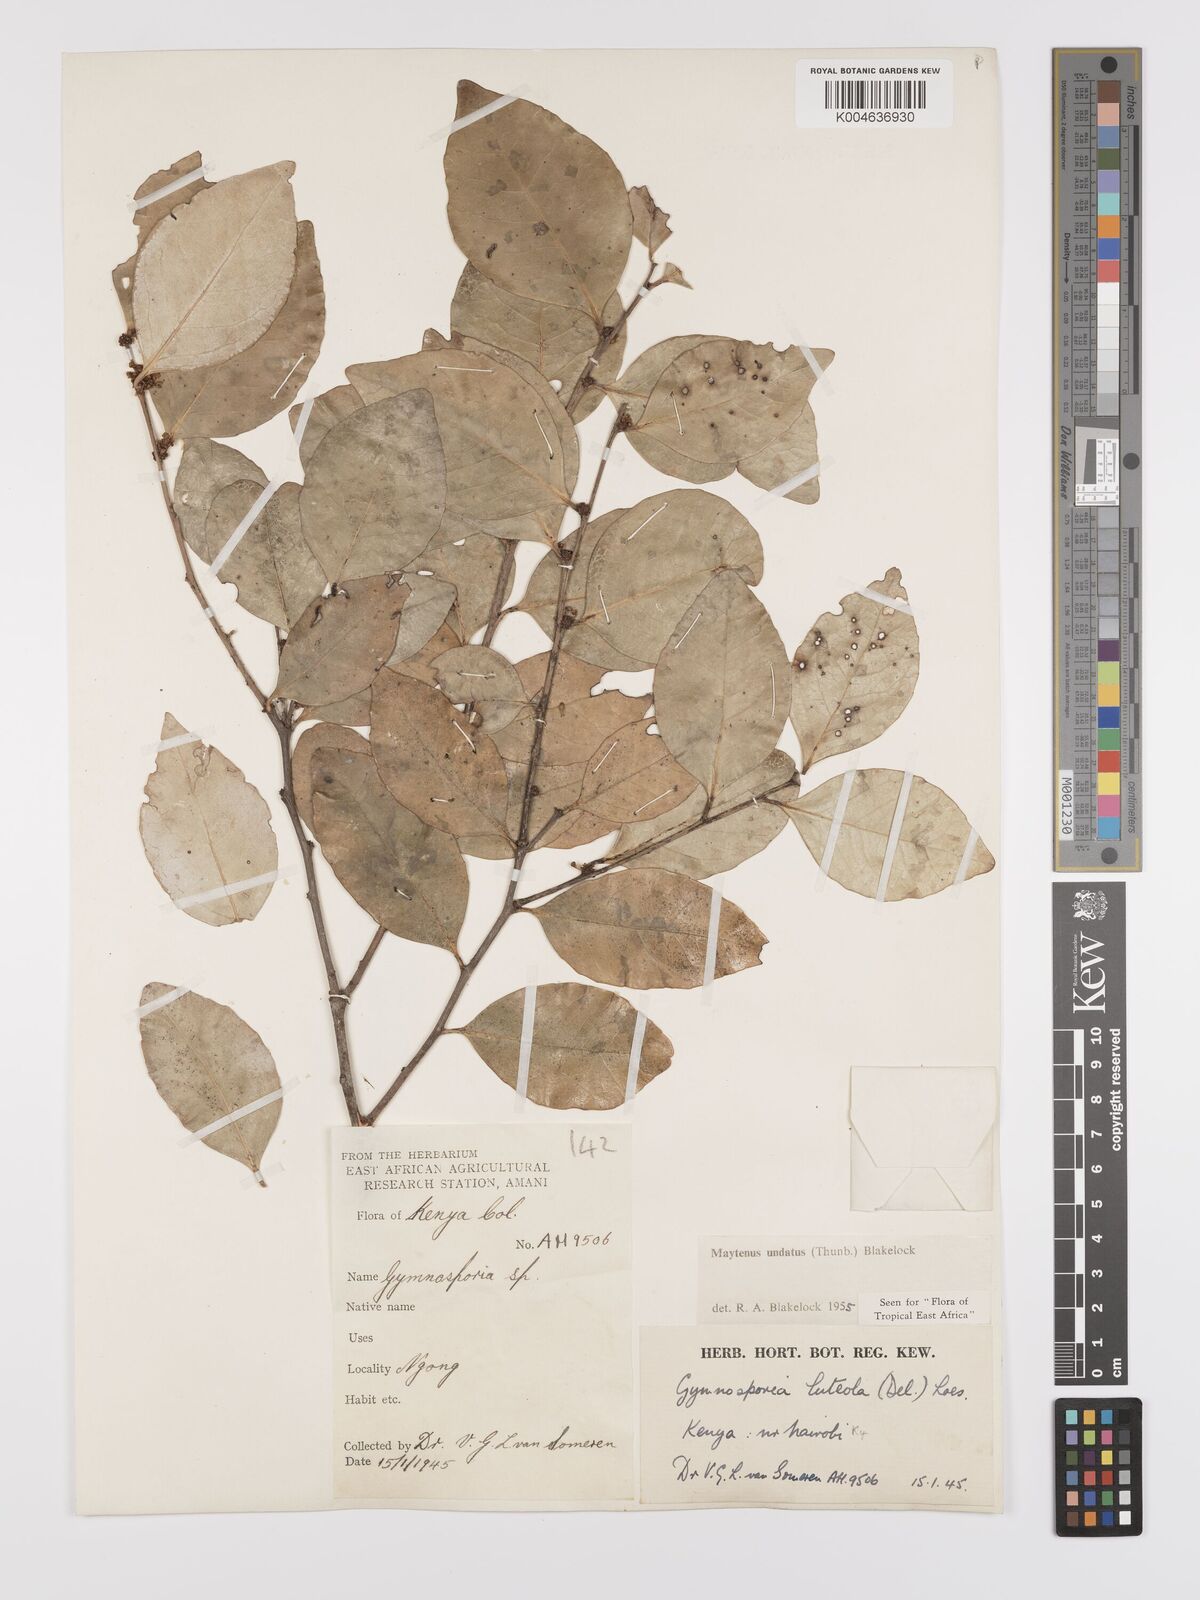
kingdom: Plantae
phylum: Tracheophyta
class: Magnoliopsida
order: Celastrales
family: Celastraceae
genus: Gymnosporia
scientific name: Gymnosporia undata
